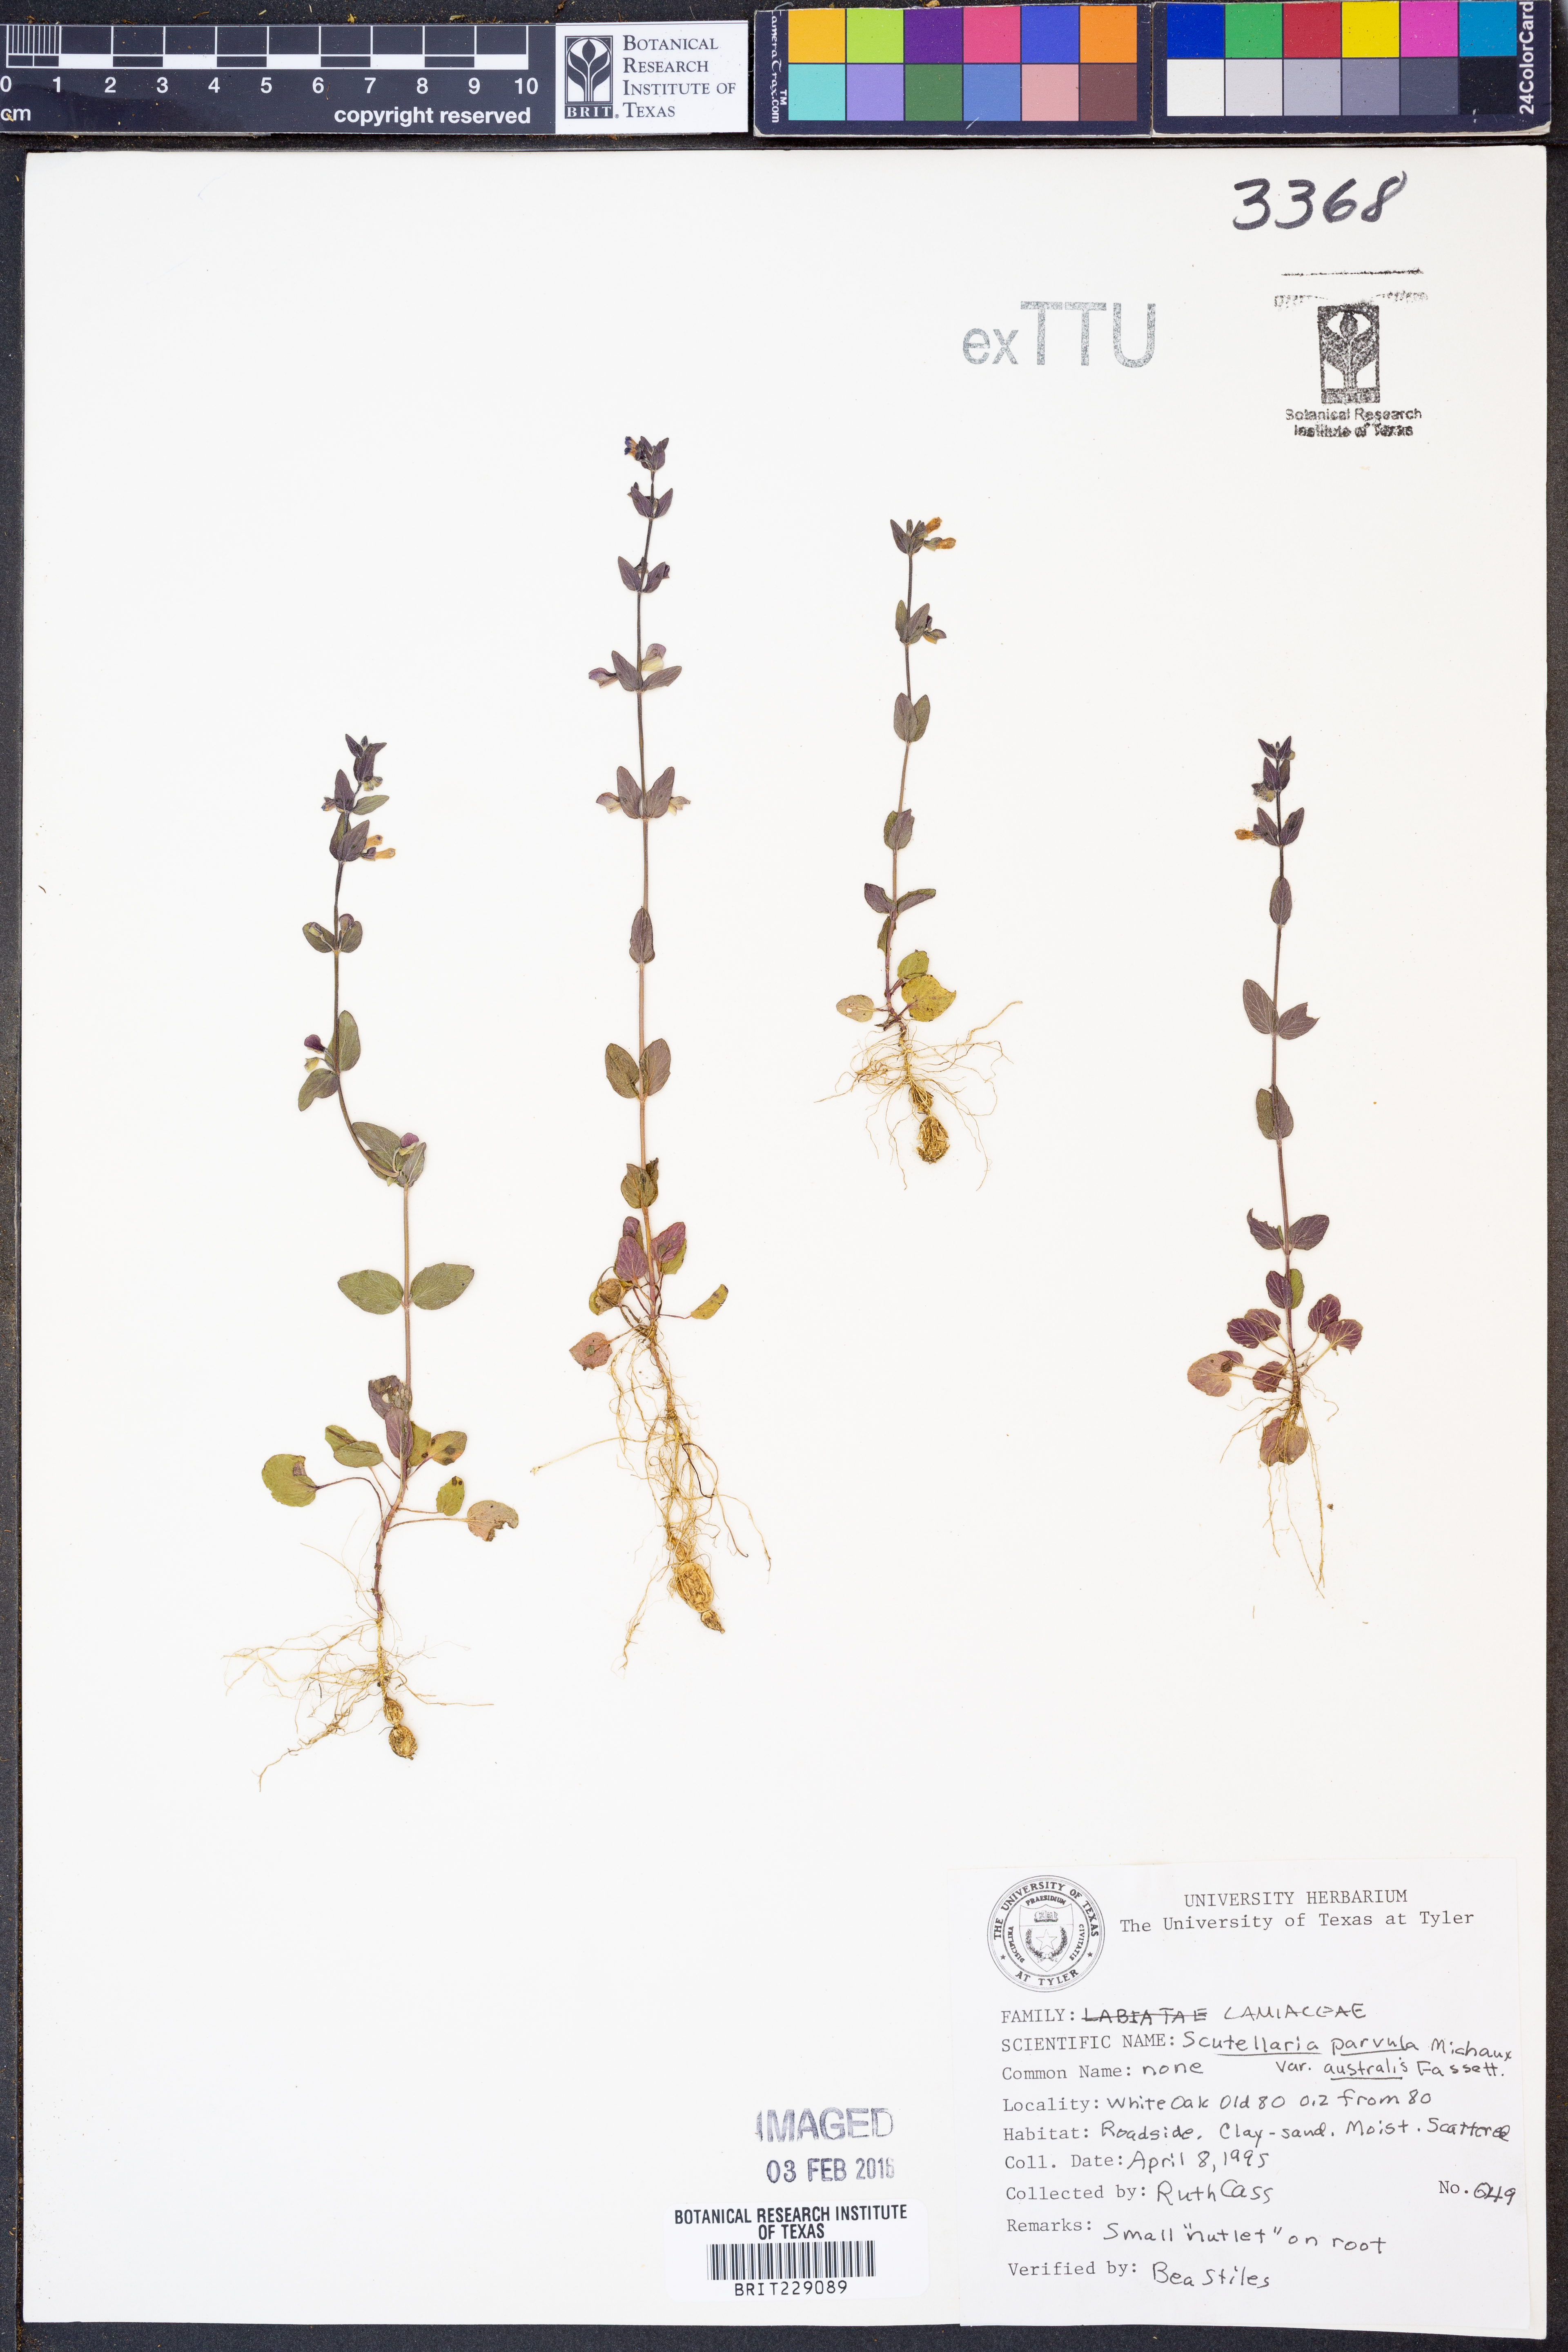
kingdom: Plantae
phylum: Tracheophyta
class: Magnoliopsida
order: Lamiales
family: Lamiaceae
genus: Scutellaria
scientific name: Scutellaria parvula
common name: Little scullcap
